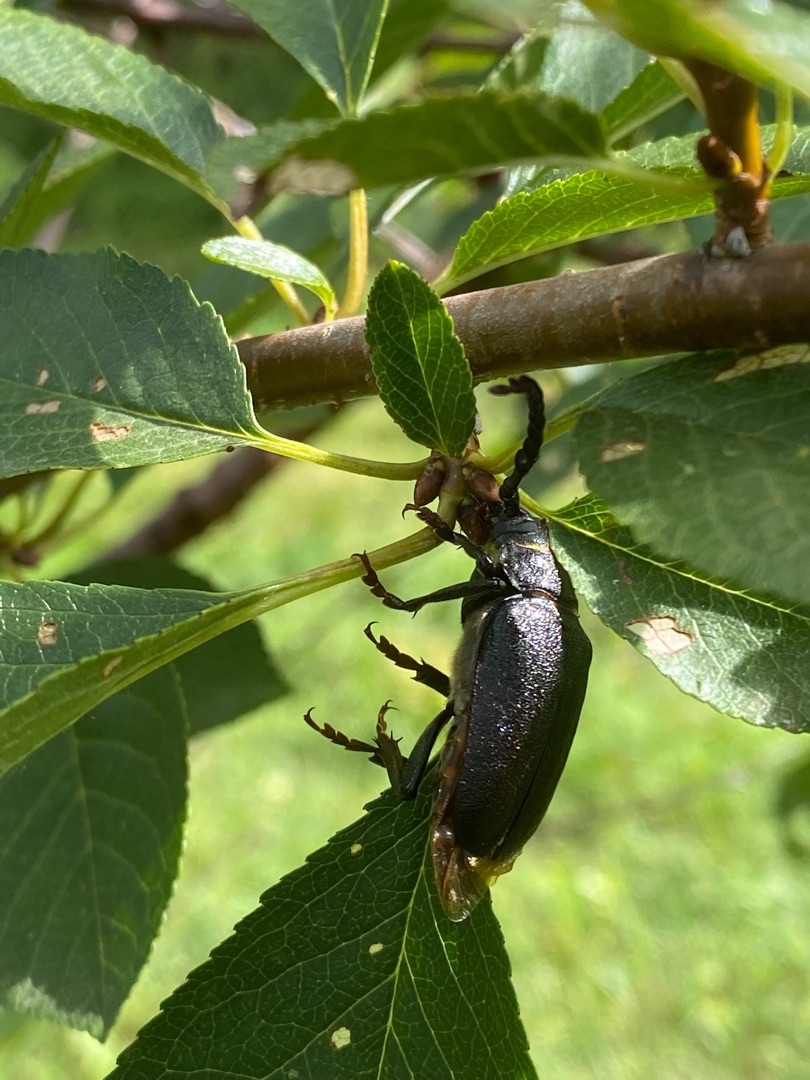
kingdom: Animalia
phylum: Arthropoda
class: Insecta
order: Coleoptera
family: Cerambycidae
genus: Prionus
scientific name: Prionus coriarius
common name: Garver
